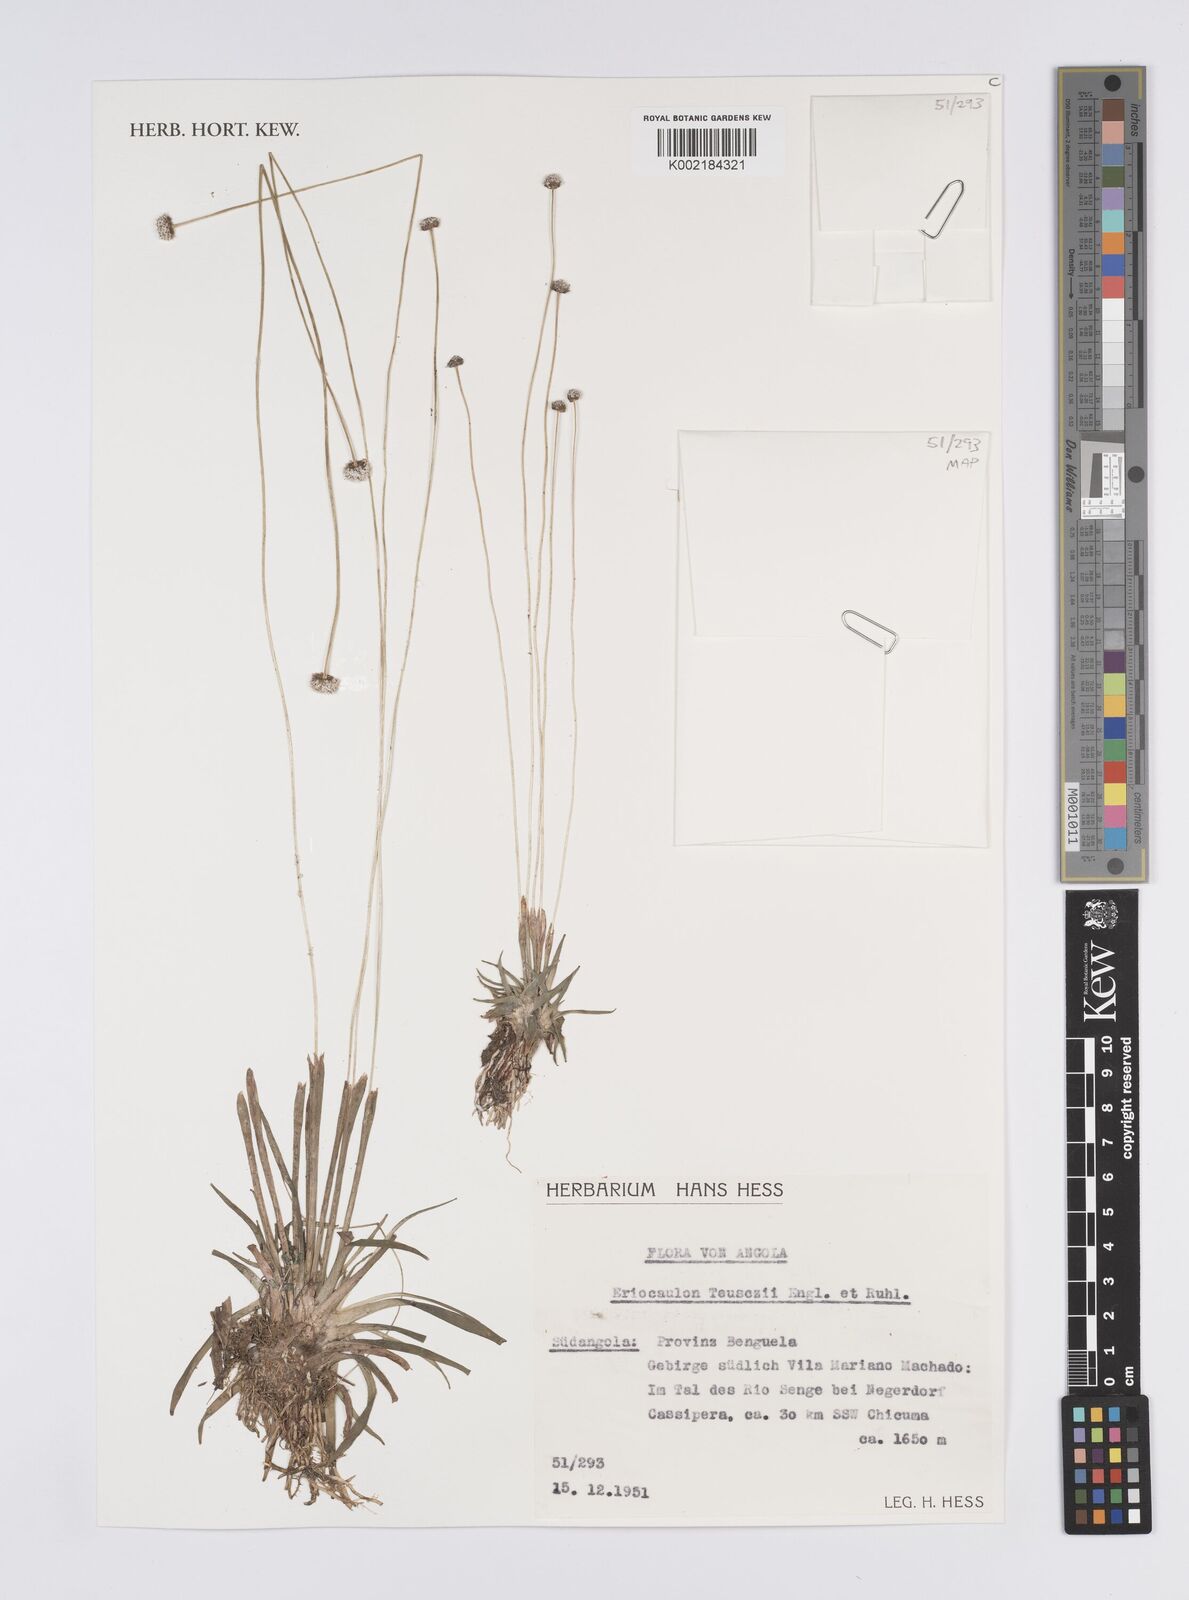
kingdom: Plantae
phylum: Tracheophyta
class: Liliopsida
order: Poales
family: Eriocaulaceae
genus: Eriocaulon
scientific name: Eriocaulon teusczii
